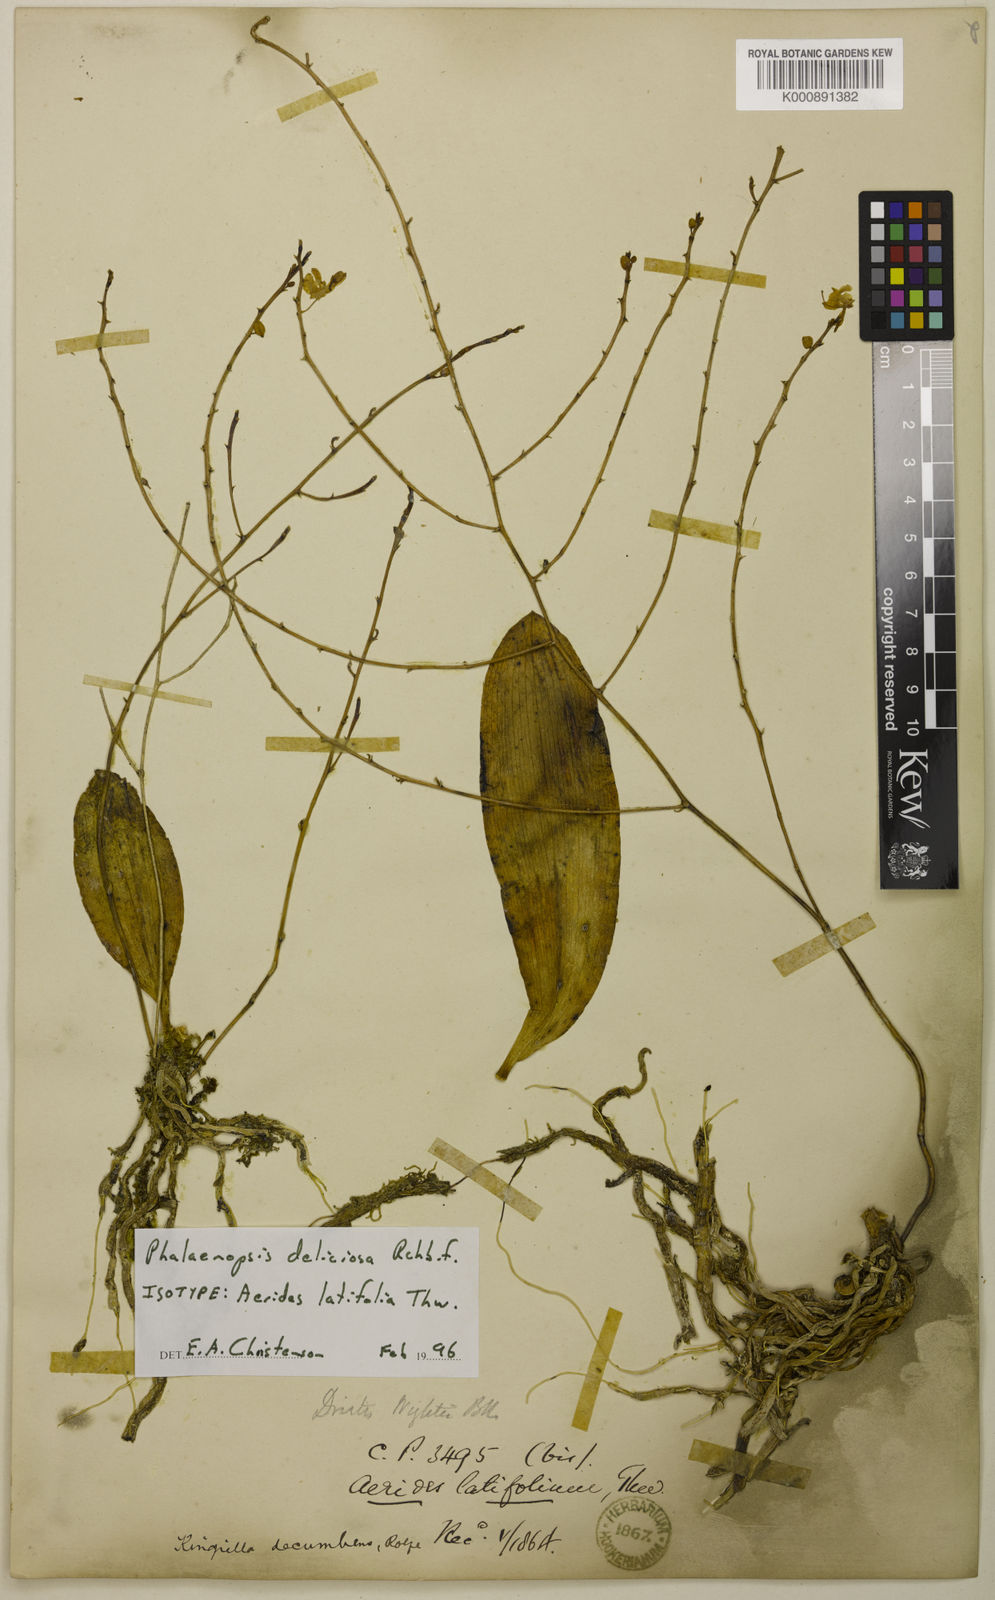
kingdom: Plantae
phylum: Tracheophyta
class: Liliopsida
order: Asparagales
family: Orchidaceae
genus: Phalaenopsis
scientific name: Phalaenopsis parishii
